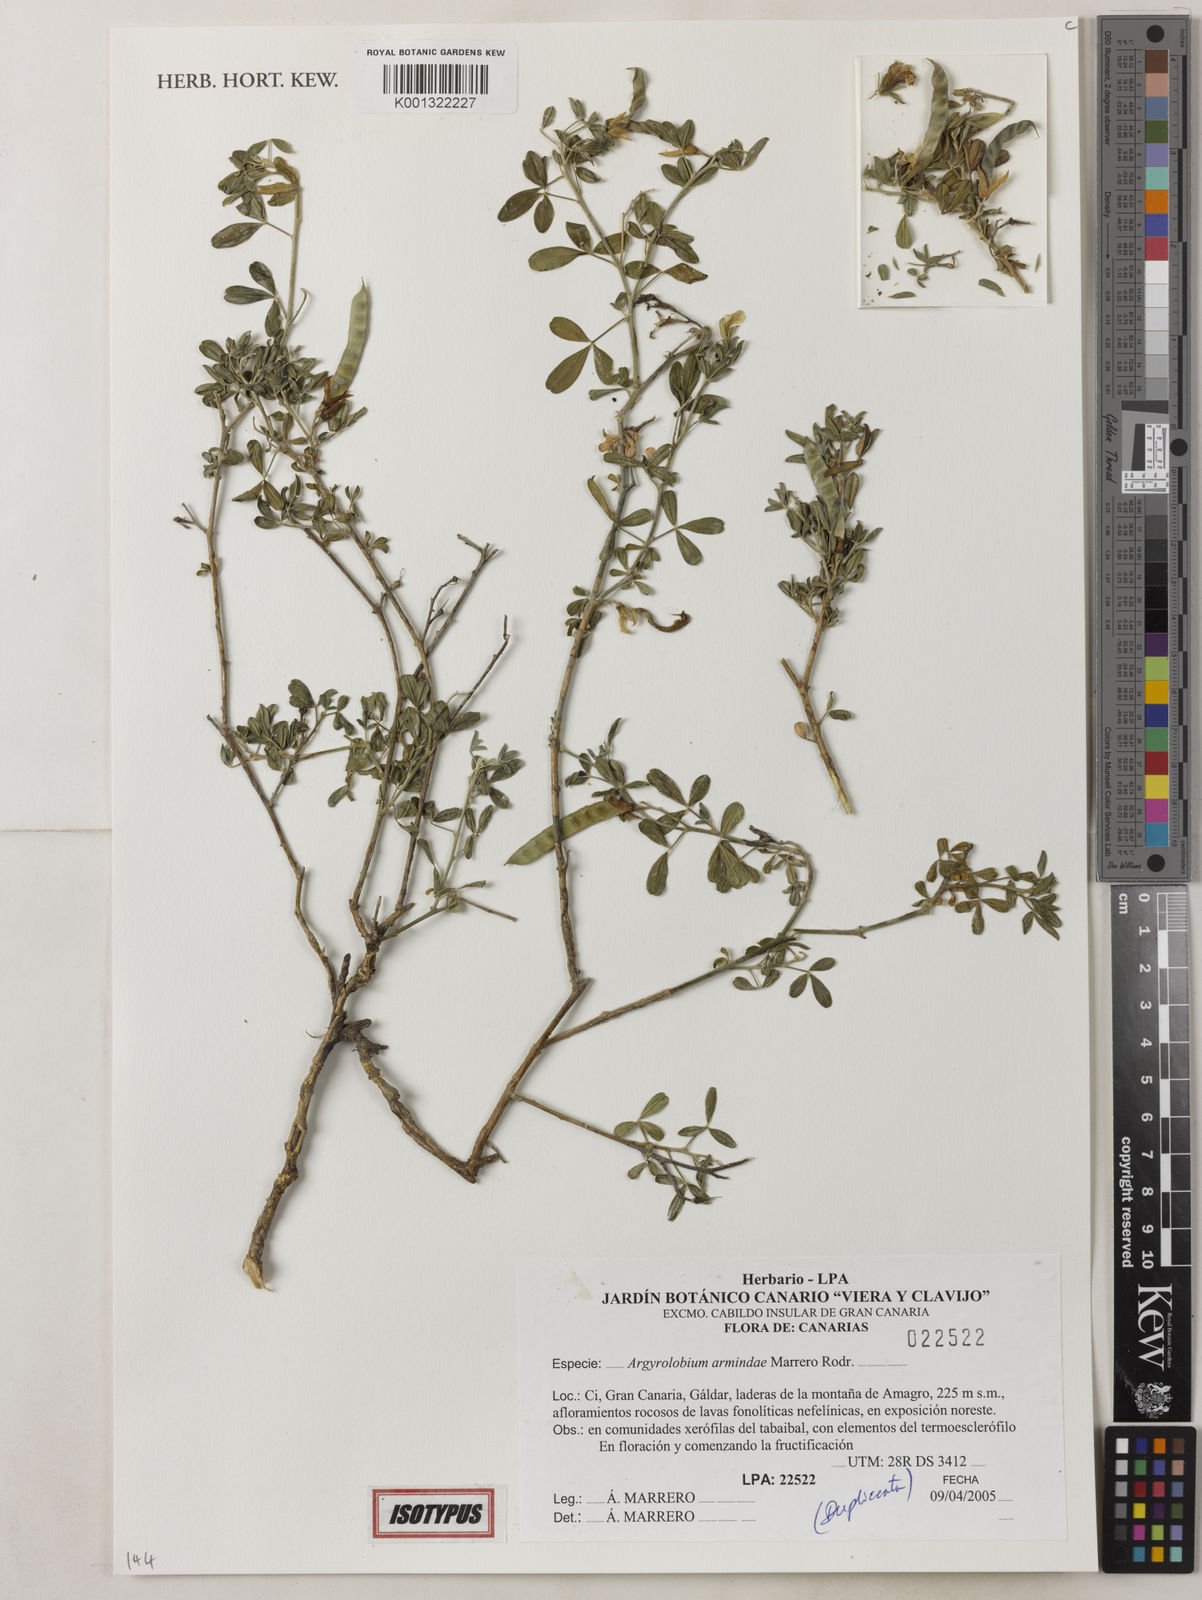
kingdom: Plantae
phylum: Tracheophyta
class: Magnoliopsida
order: Fabales
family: Fabaceae
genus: Argyrolobium
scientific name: Argyrolobium armindae
